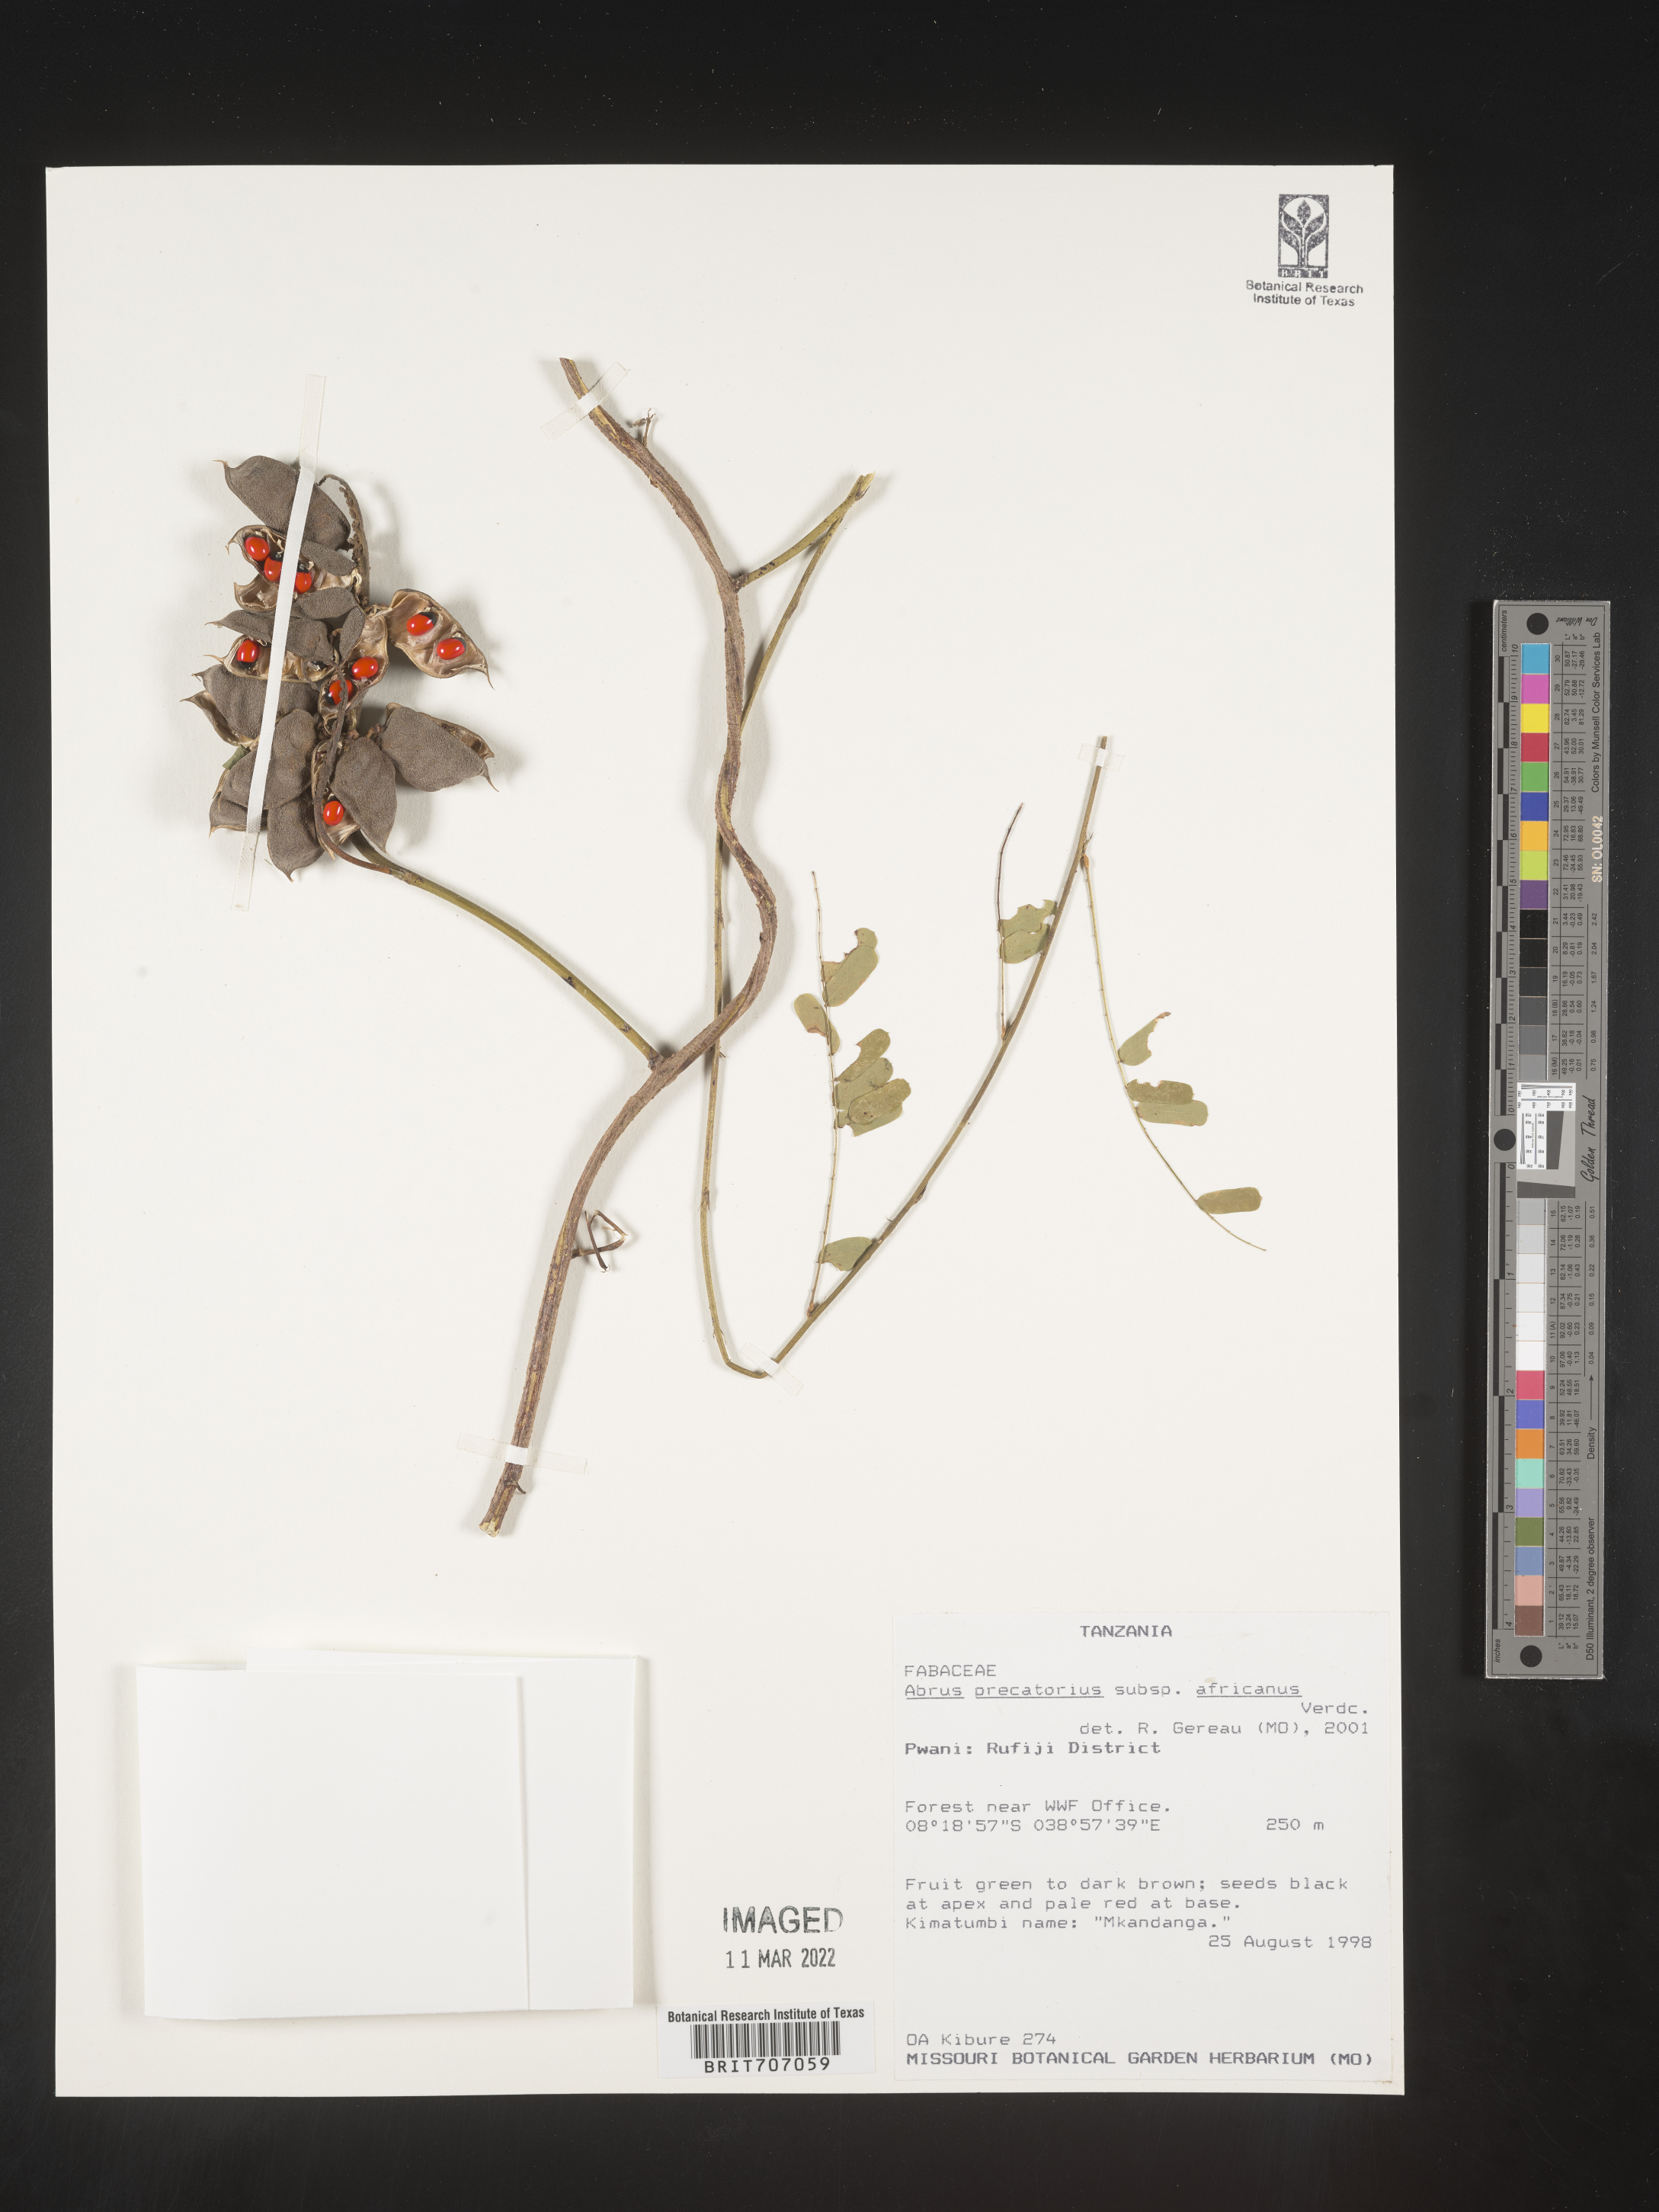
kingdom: Plantae
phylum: Tracheophyta
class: Magnoliopsida
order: Fabales
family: Fabaceae
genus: Abrus
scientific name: Abrus
